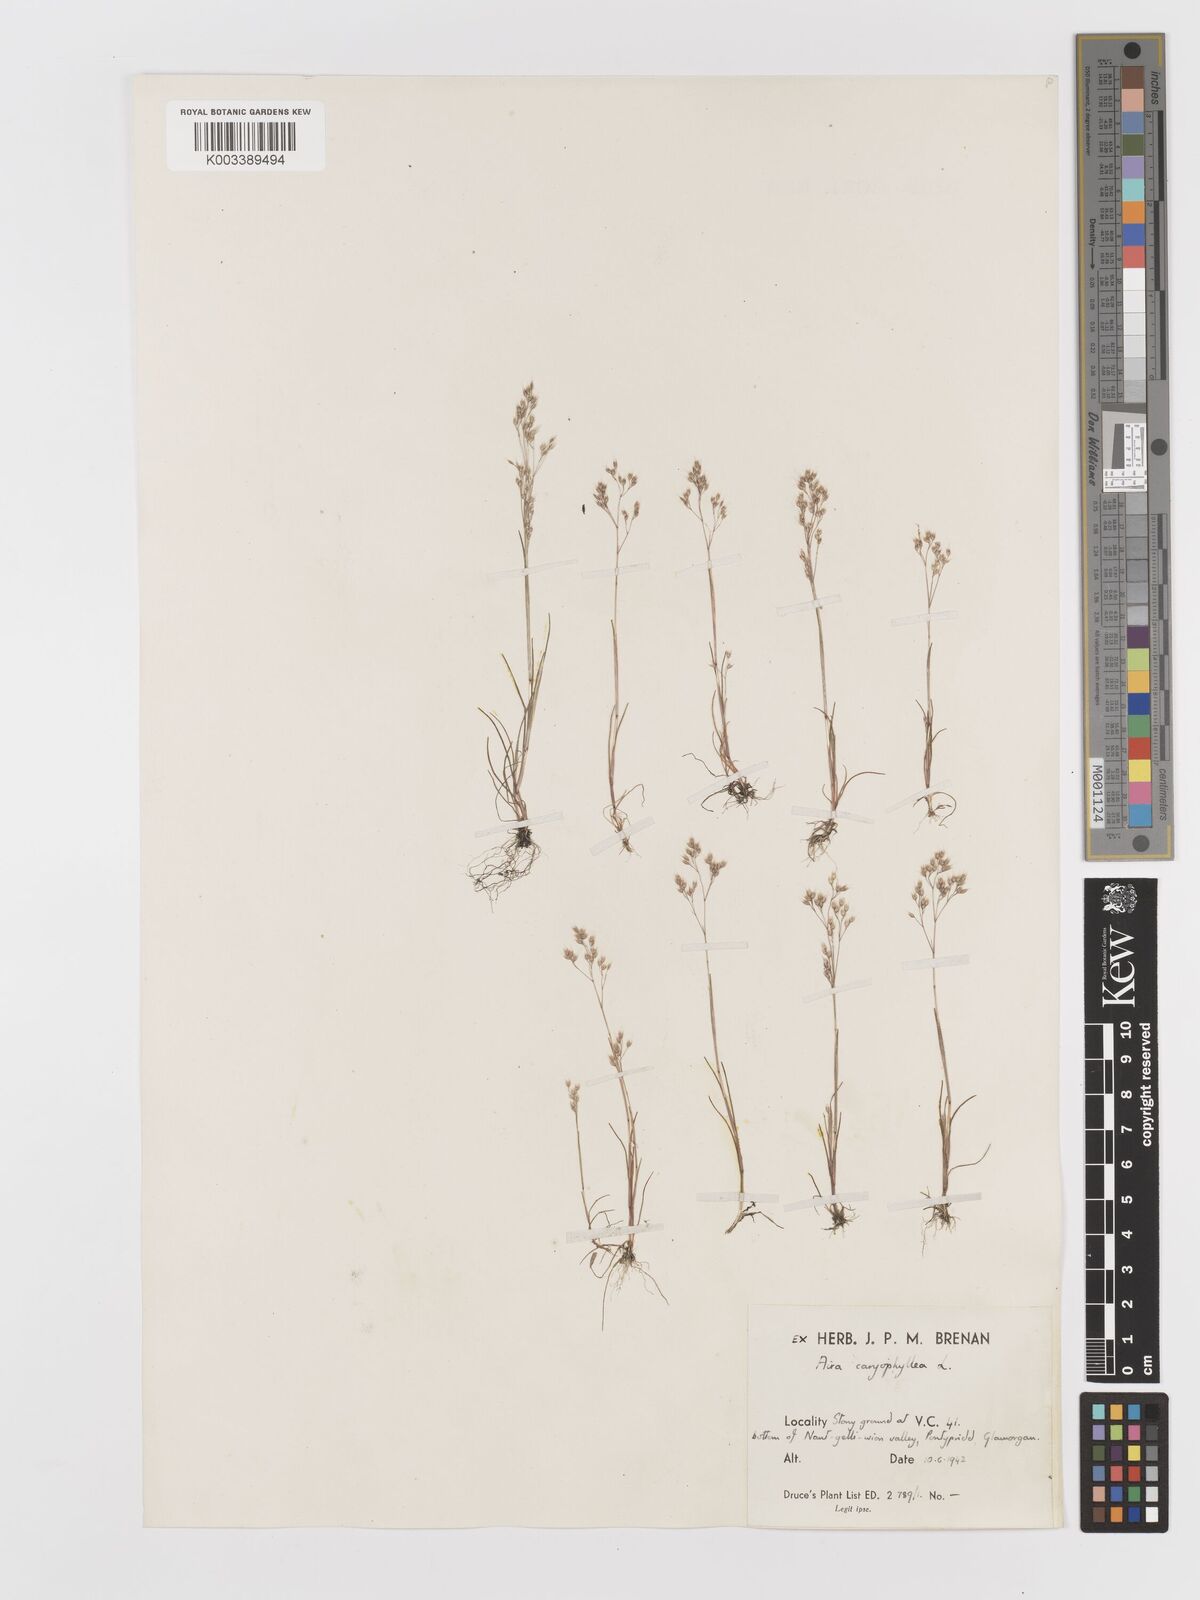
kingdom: Plantae
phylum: Tracheophyta
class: Liliopsida
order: Poales
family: Poaceae
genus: Aira
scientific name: Aira caryophyllea
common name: Silver hairgrass
